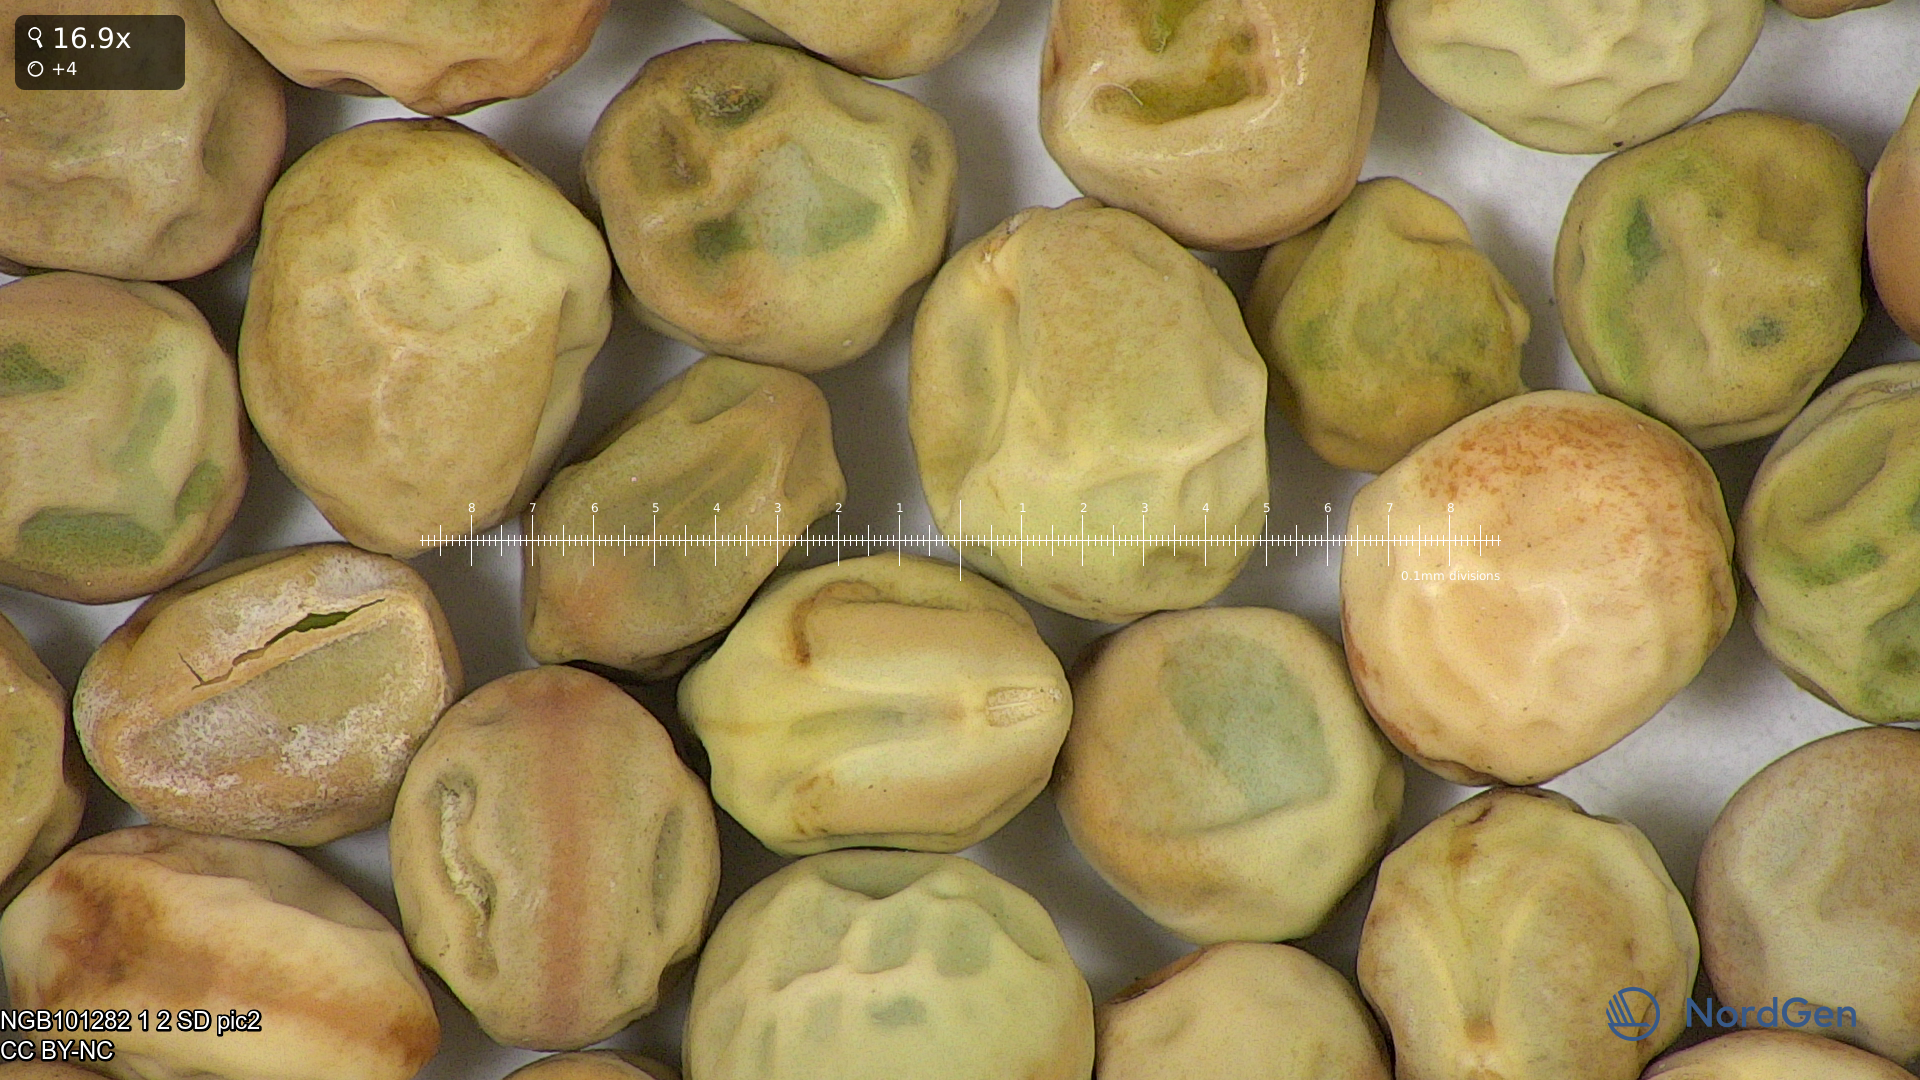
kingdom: Plantae
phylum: Tracheophyta
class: Magnoliopsida
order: Fabales
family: Fabaceae
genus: Lathyrus
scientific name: Lathyrus oleraceus
